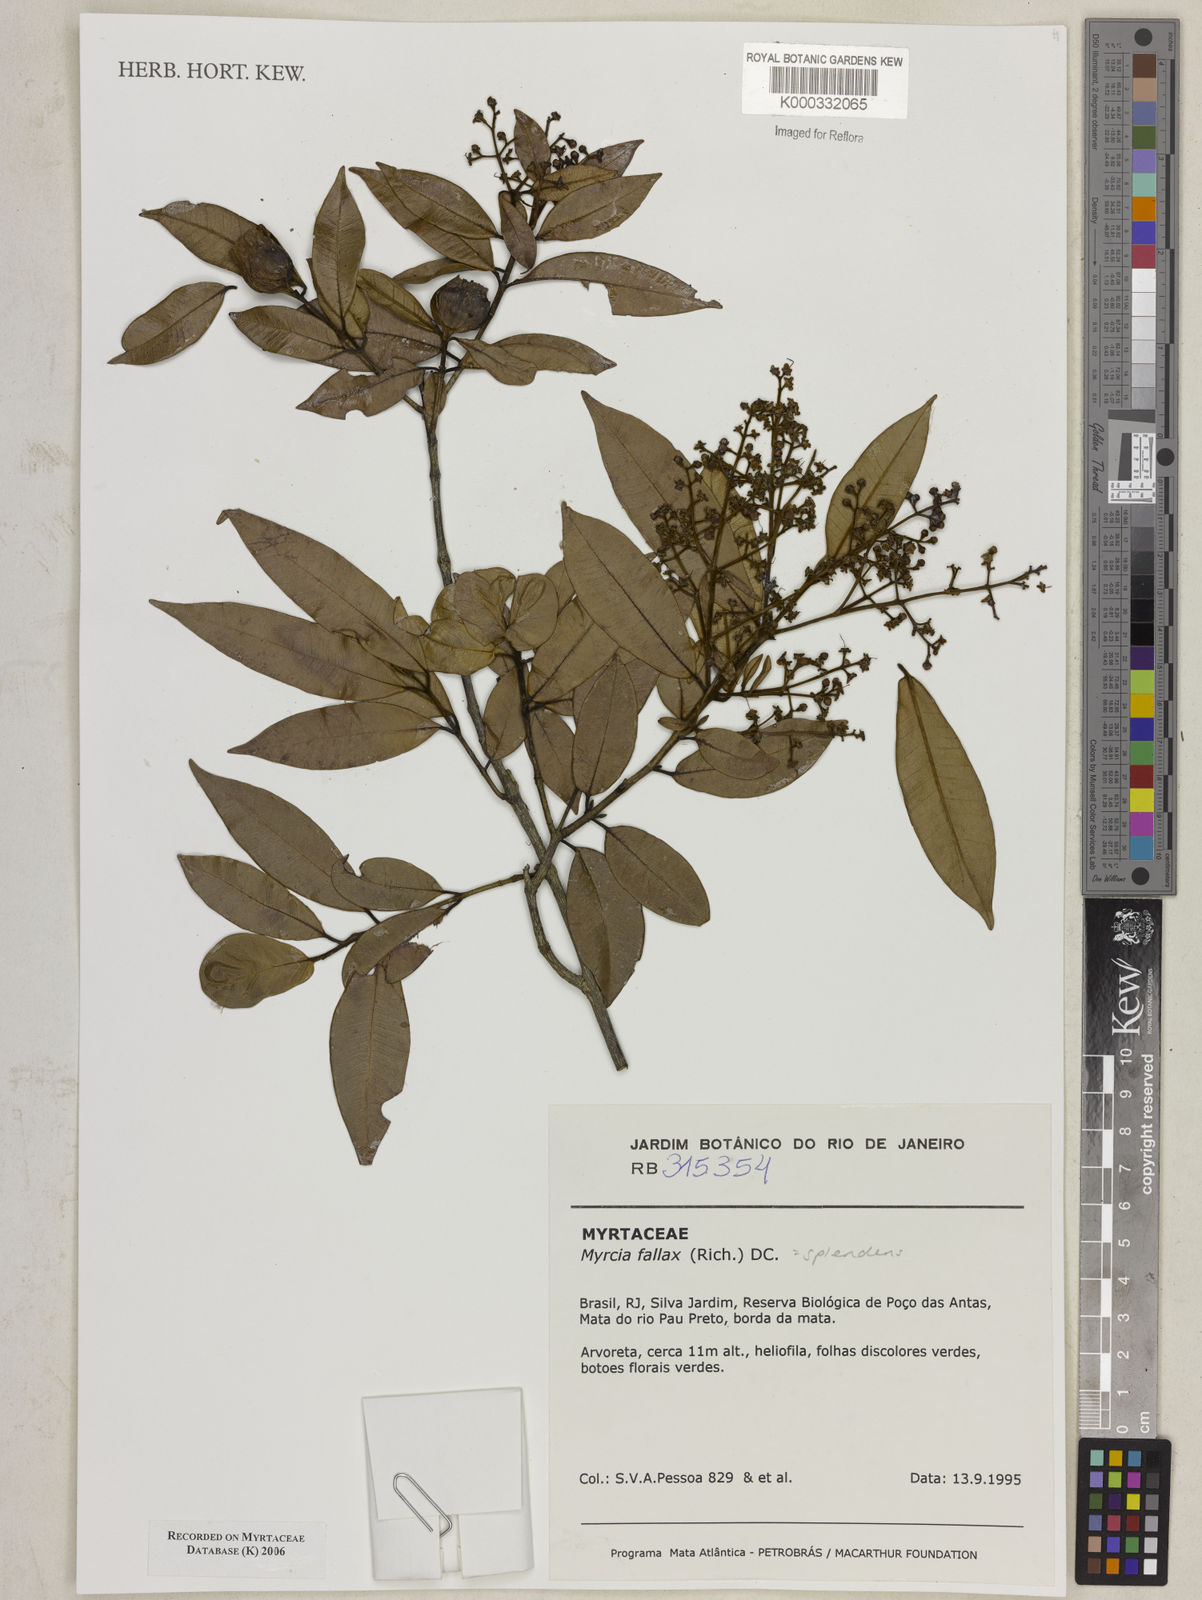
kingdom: Plantae
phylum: Tracheophyta
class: Magnoliopsida
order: Myrtales
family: Myrtaceae
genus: Myrcia
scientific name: Myrcia splendens
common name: Surinam cherry
